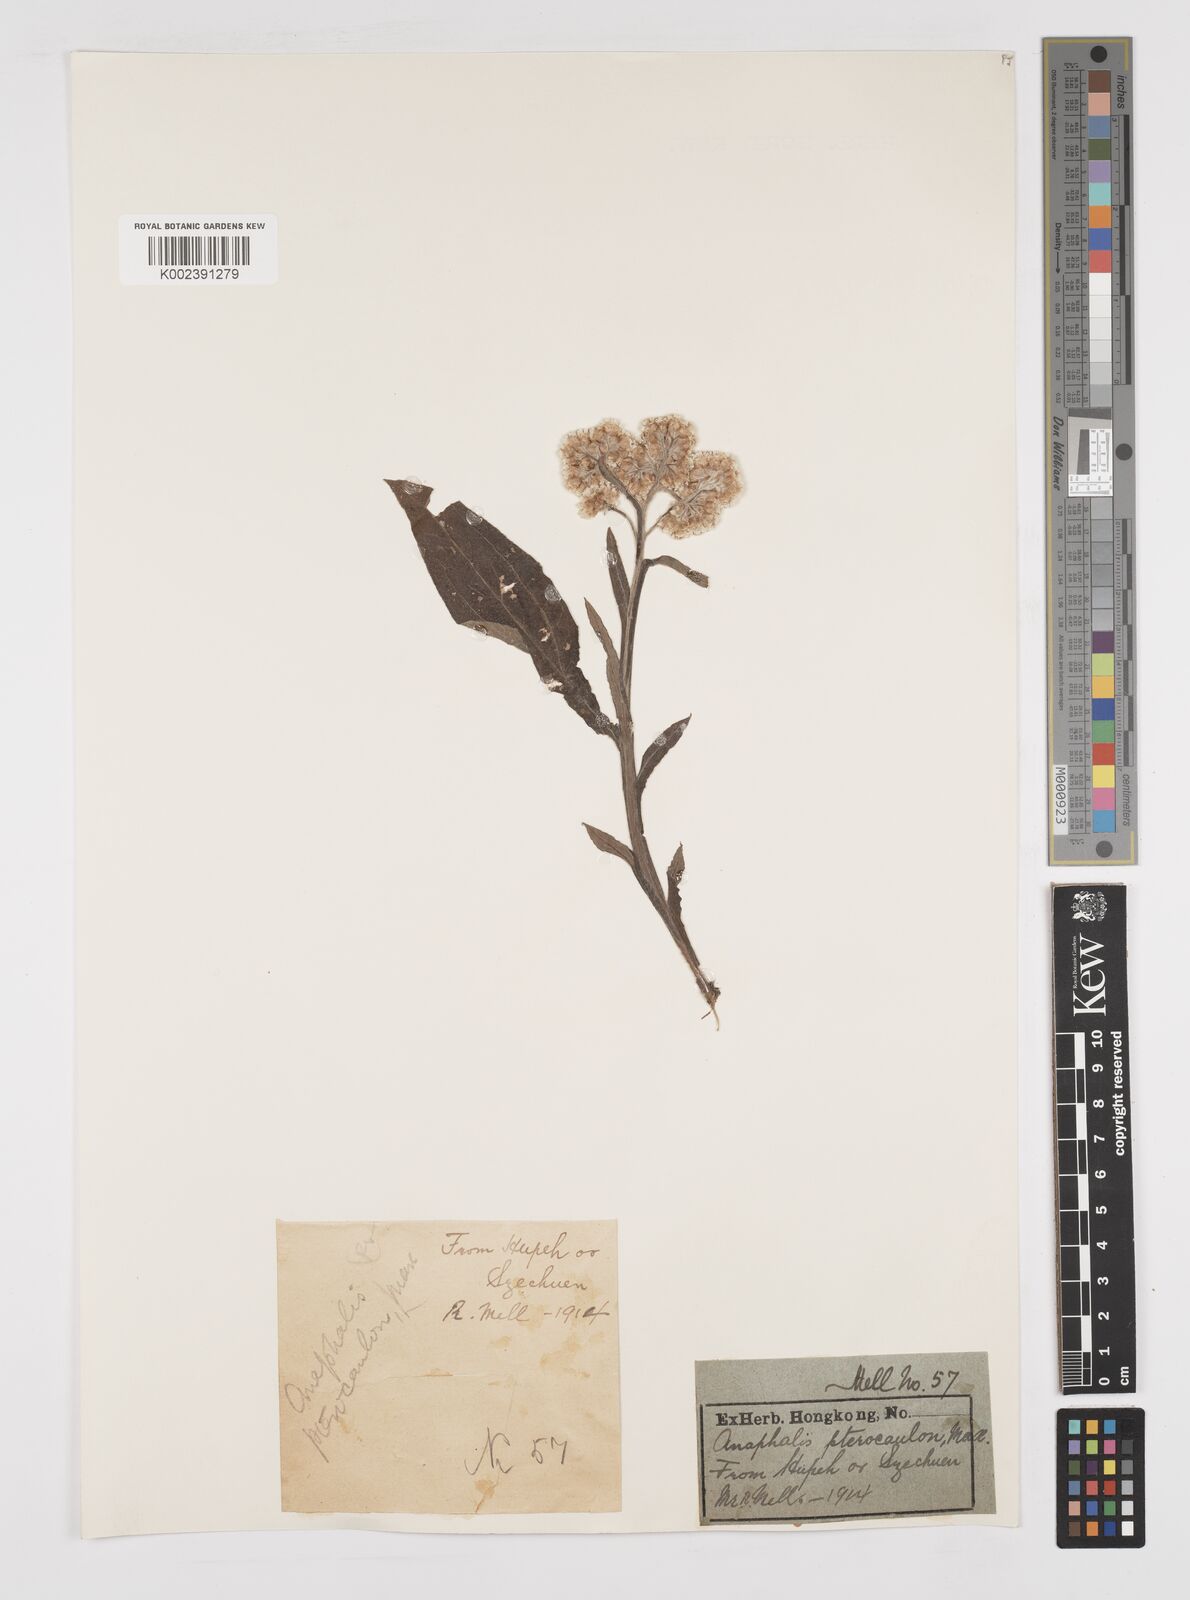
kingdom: Plantae
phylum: Tracheophyta
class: Magnoliopsida
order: Asterales
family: Asteraceae
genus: Anaphalis
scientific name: Anaphalis sinica
